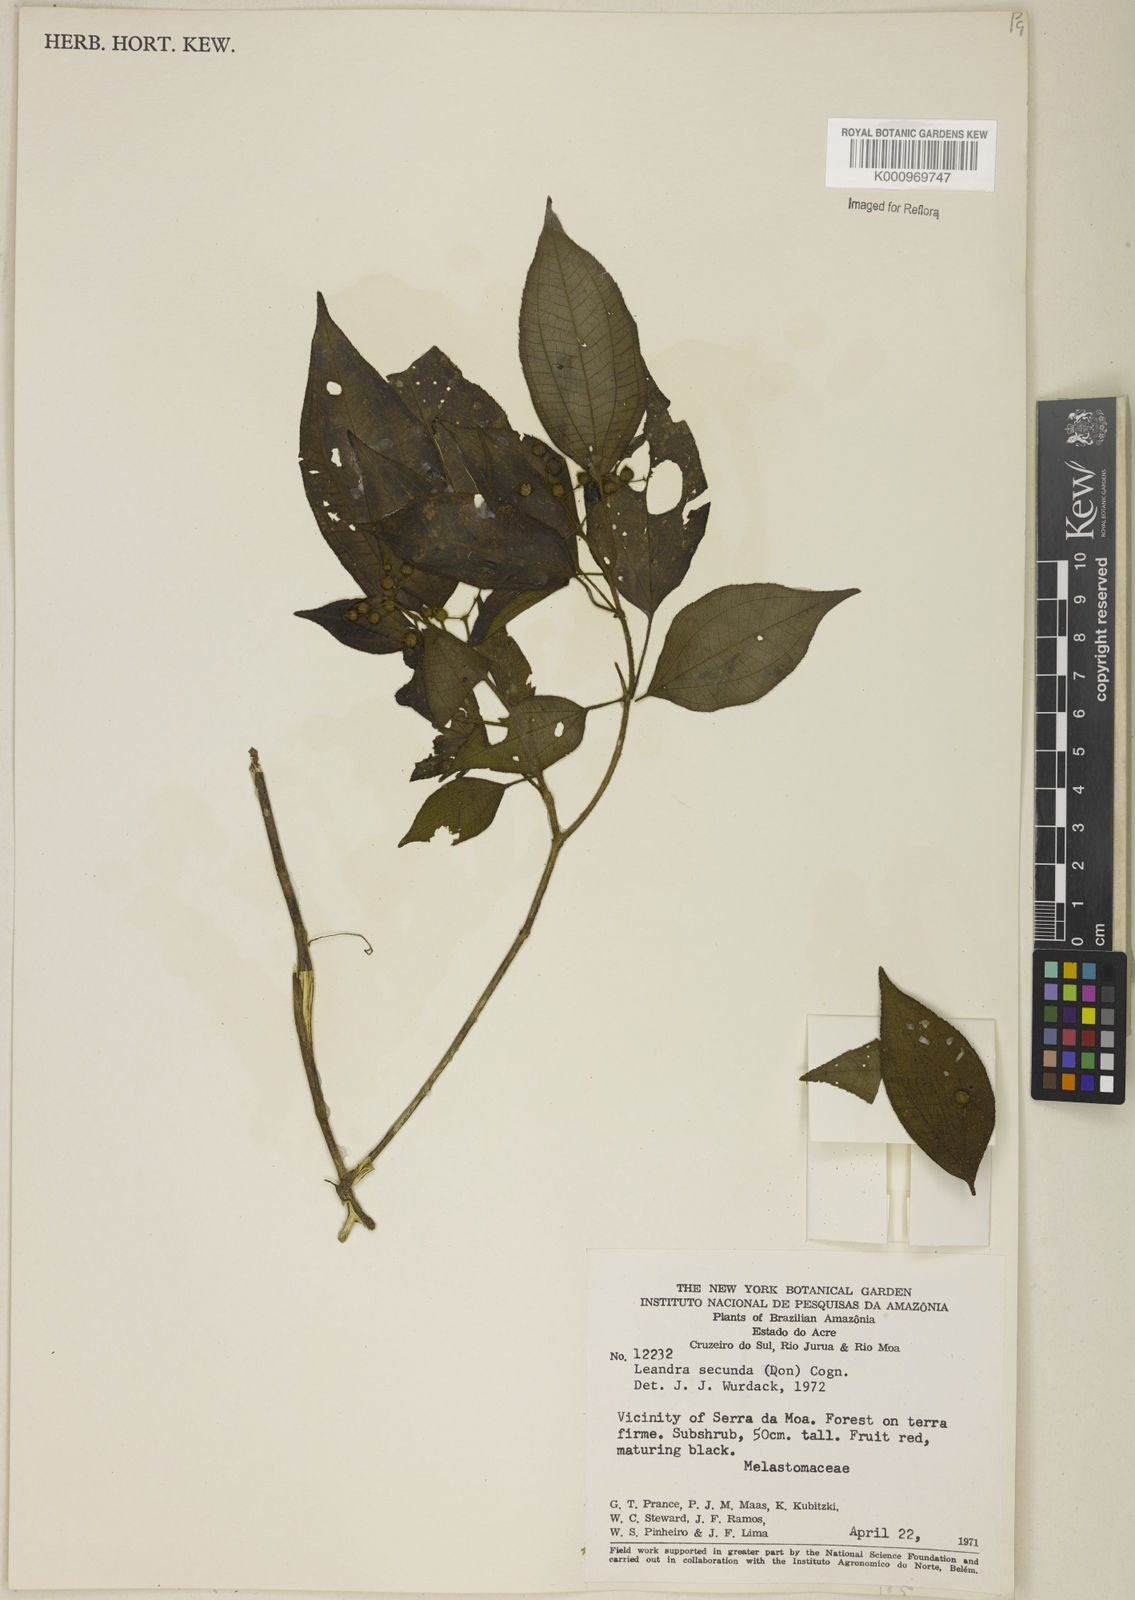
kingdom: Plantae
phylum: Tracheophyta
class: Magnoliopsida
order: Myrtales
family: Melastomataceae
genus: Miconia
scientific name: Miconia neosecunda
